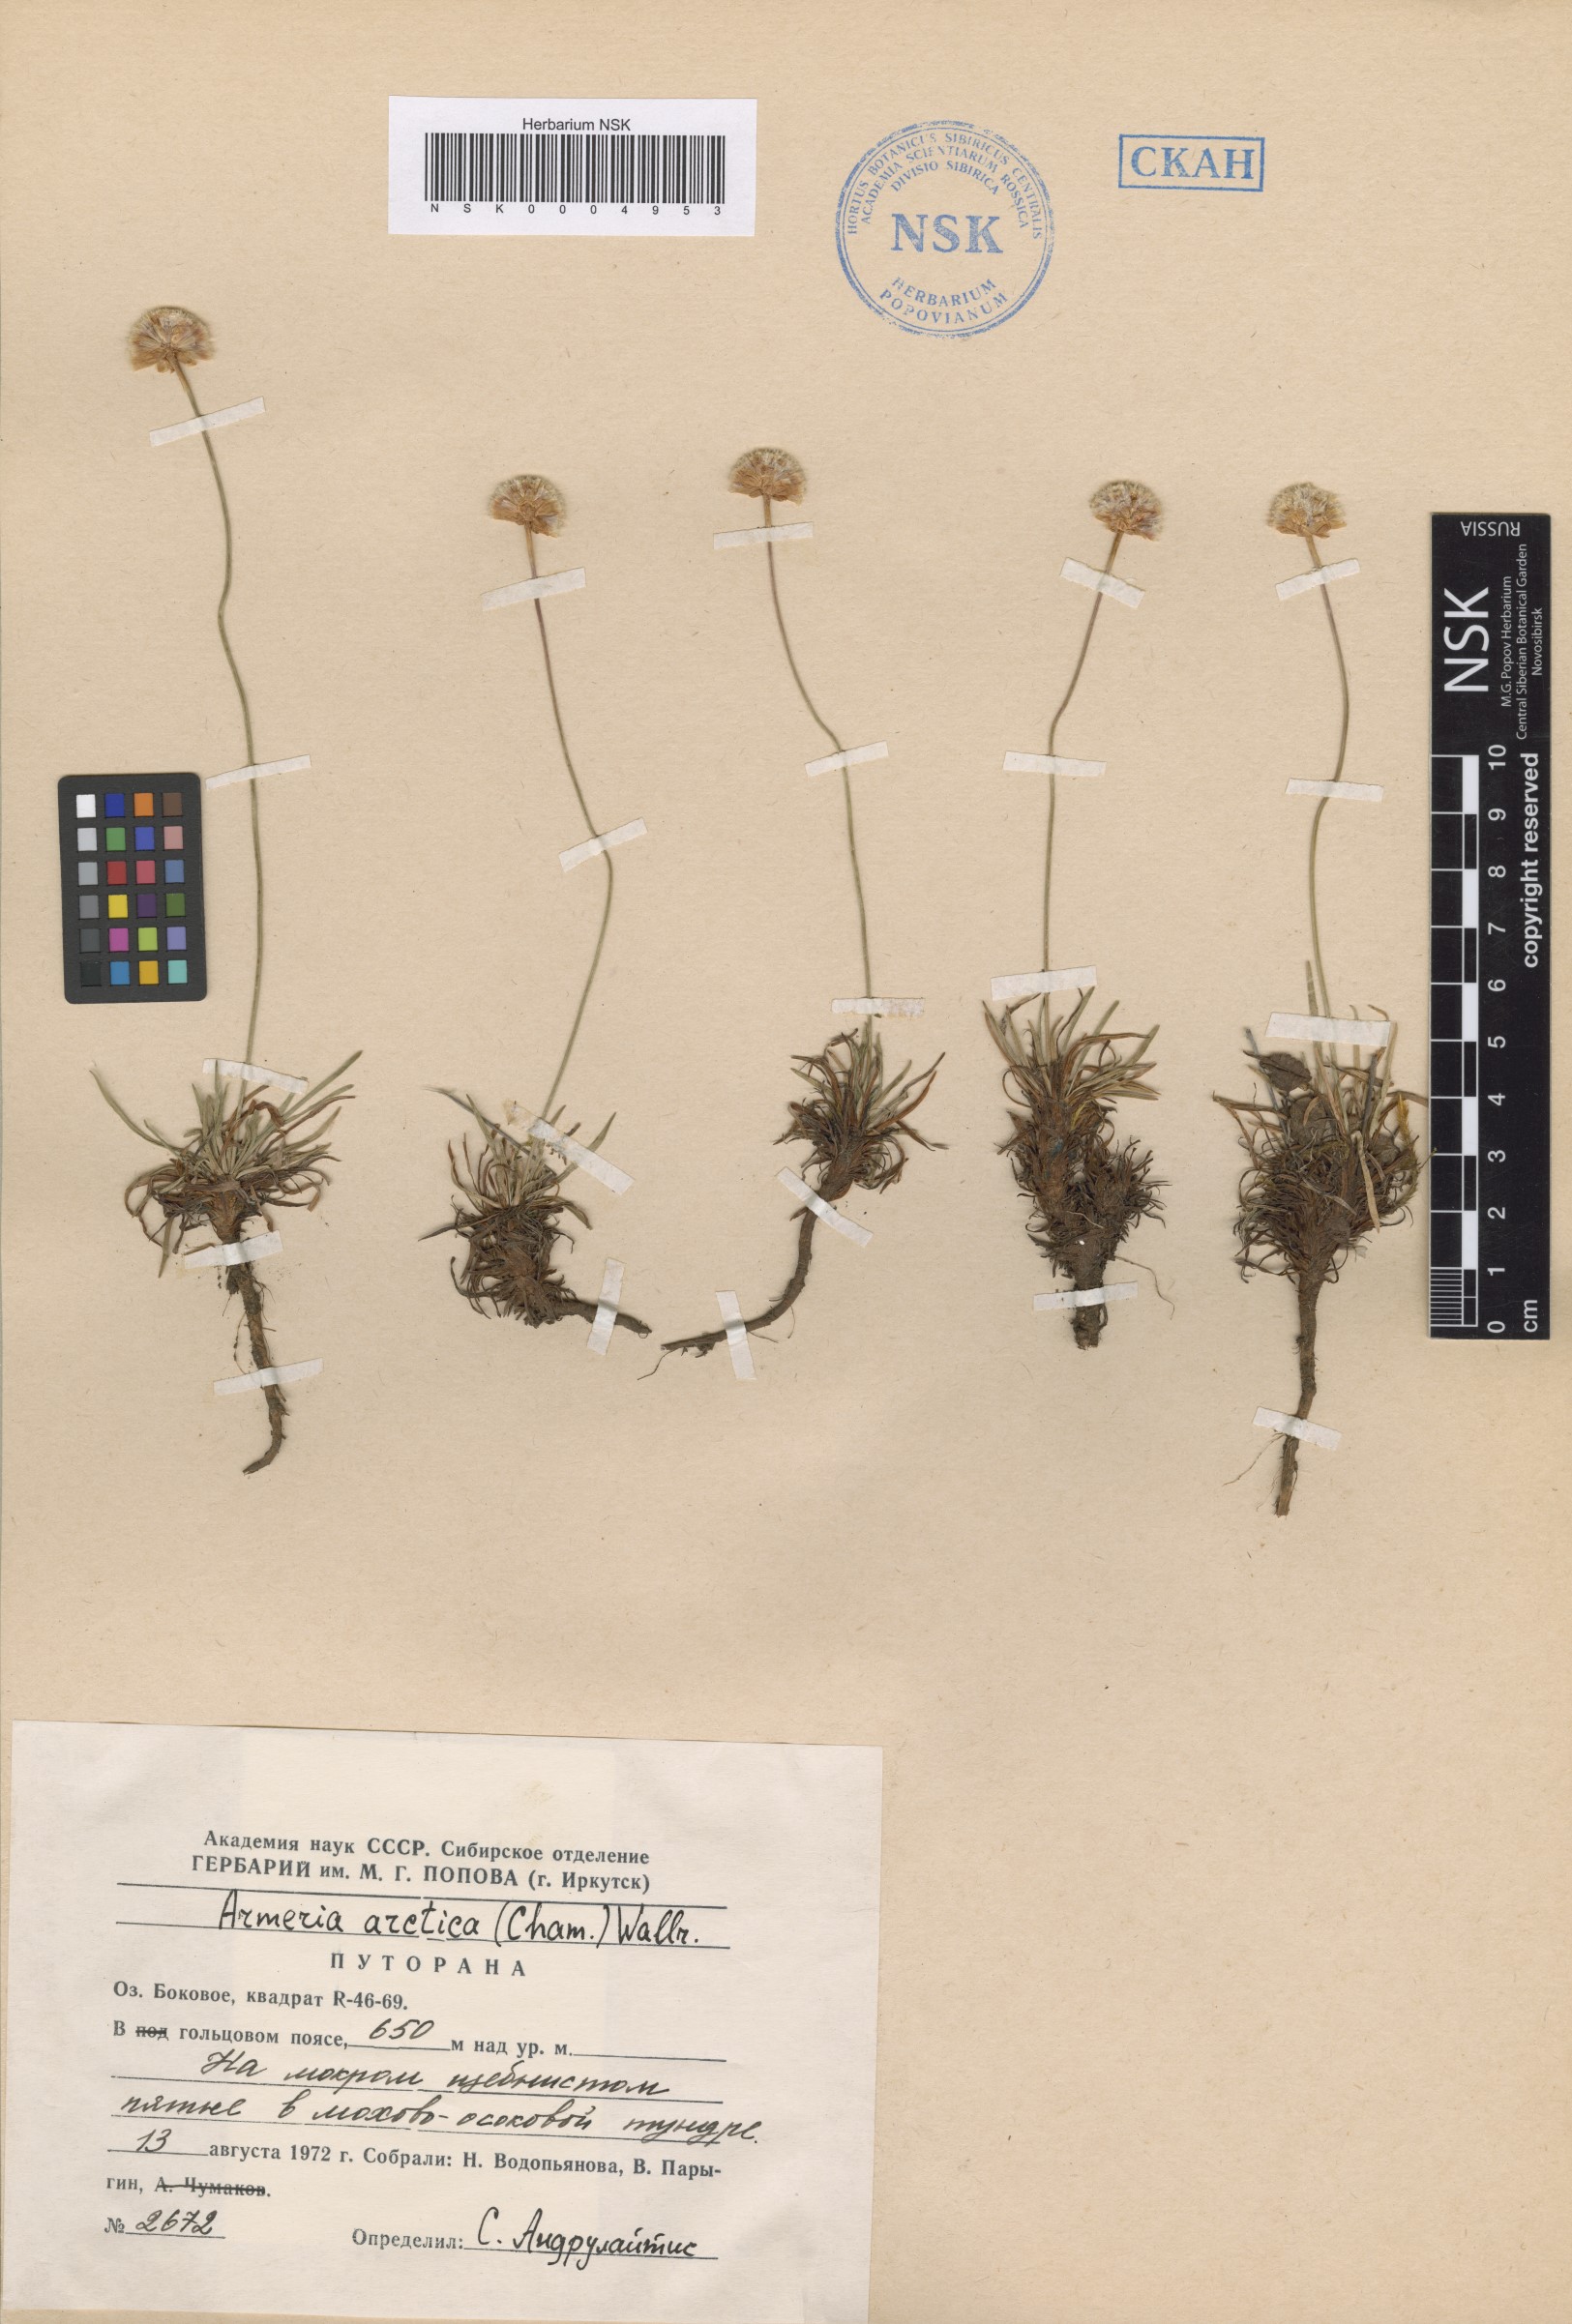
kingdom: Plantae
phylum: Tracheophyta
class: Magnoliopsida
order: Caryophyllales
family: Plumbaginaceae
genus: Armeria
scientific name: Armeria maritima
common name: Thrift
